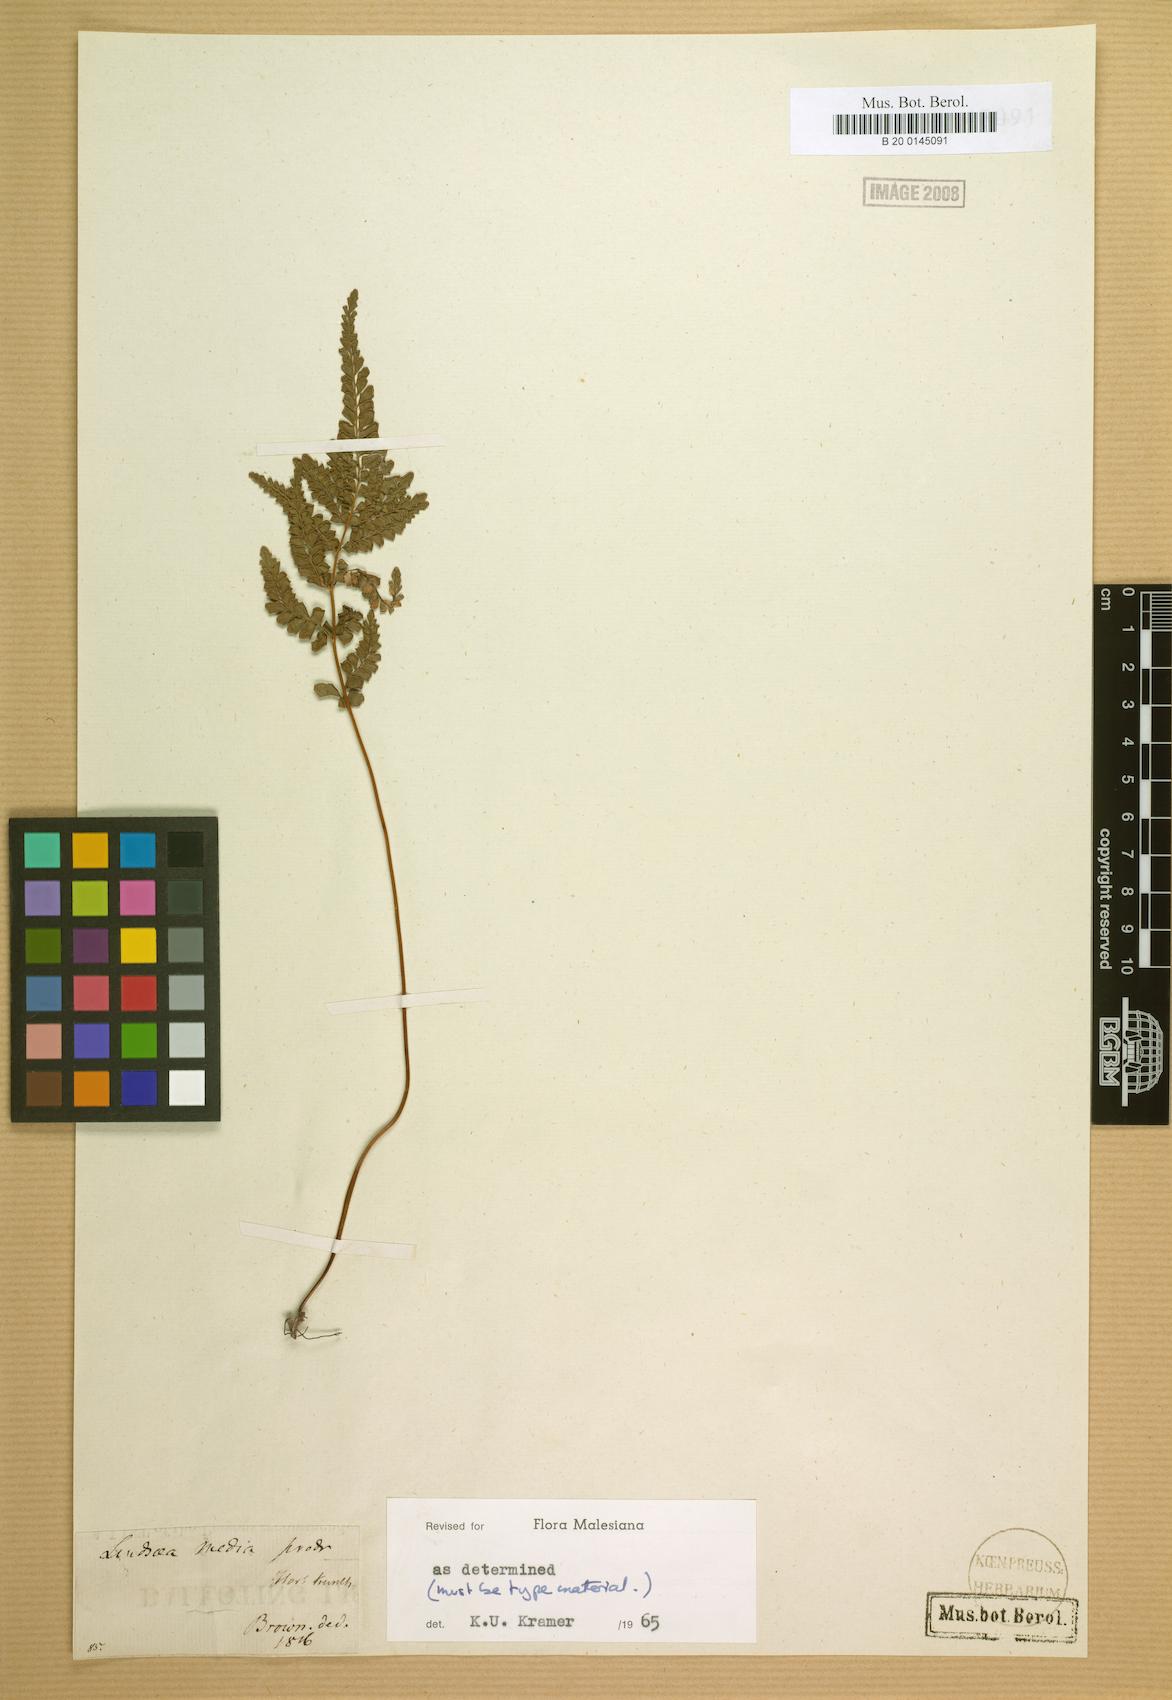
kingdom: Plantae
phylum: Tracheophyta
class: Polypodiopsida
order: Polypodiales
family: Lindsaeaceae
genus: Lindsaea
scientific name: Lindsaea media
